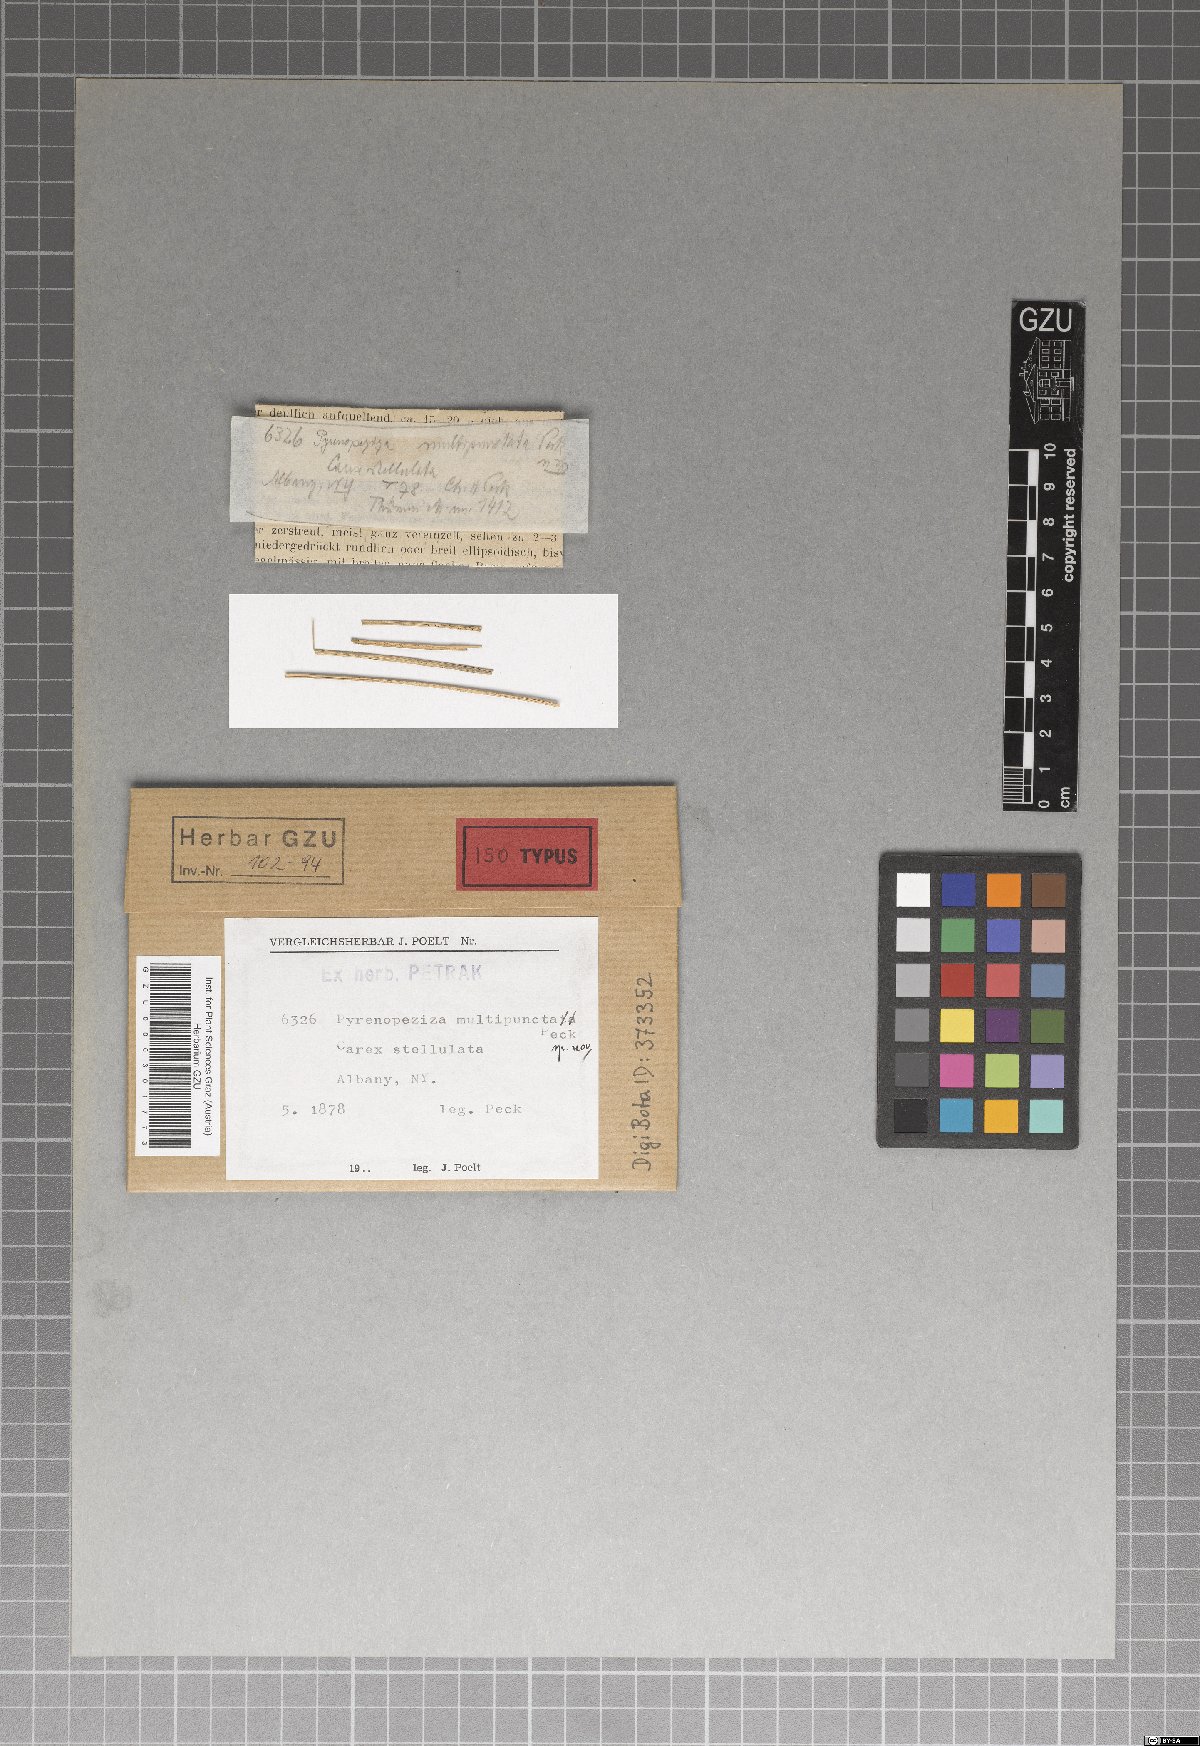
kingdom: Fungi
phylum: Ascomycota
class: Leotiomycetes
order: Helotiales
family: Dermateaceae
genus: Hysteropezizella
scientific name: Hysteropezizella multipuncta
